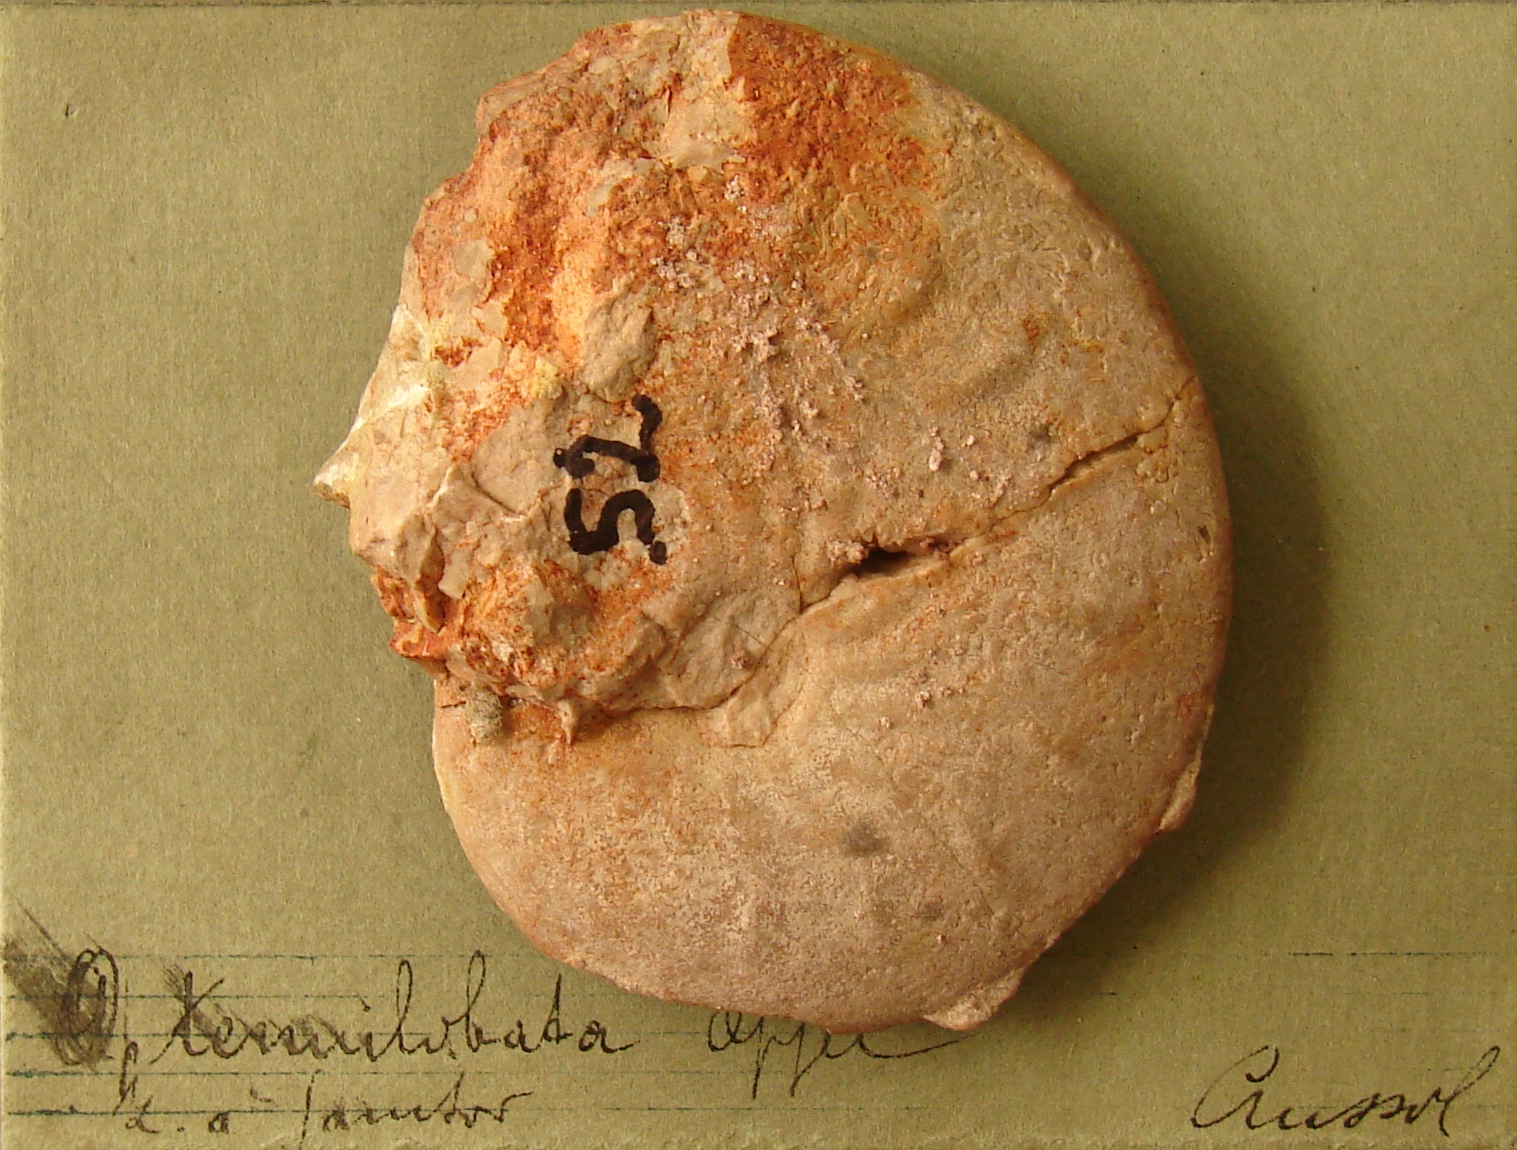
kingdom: Animalia
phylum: Mollusca
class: Cephalopoda
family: Oppeliidae
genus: Streblites
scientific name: Streblites Ammonites tenuilobatus
